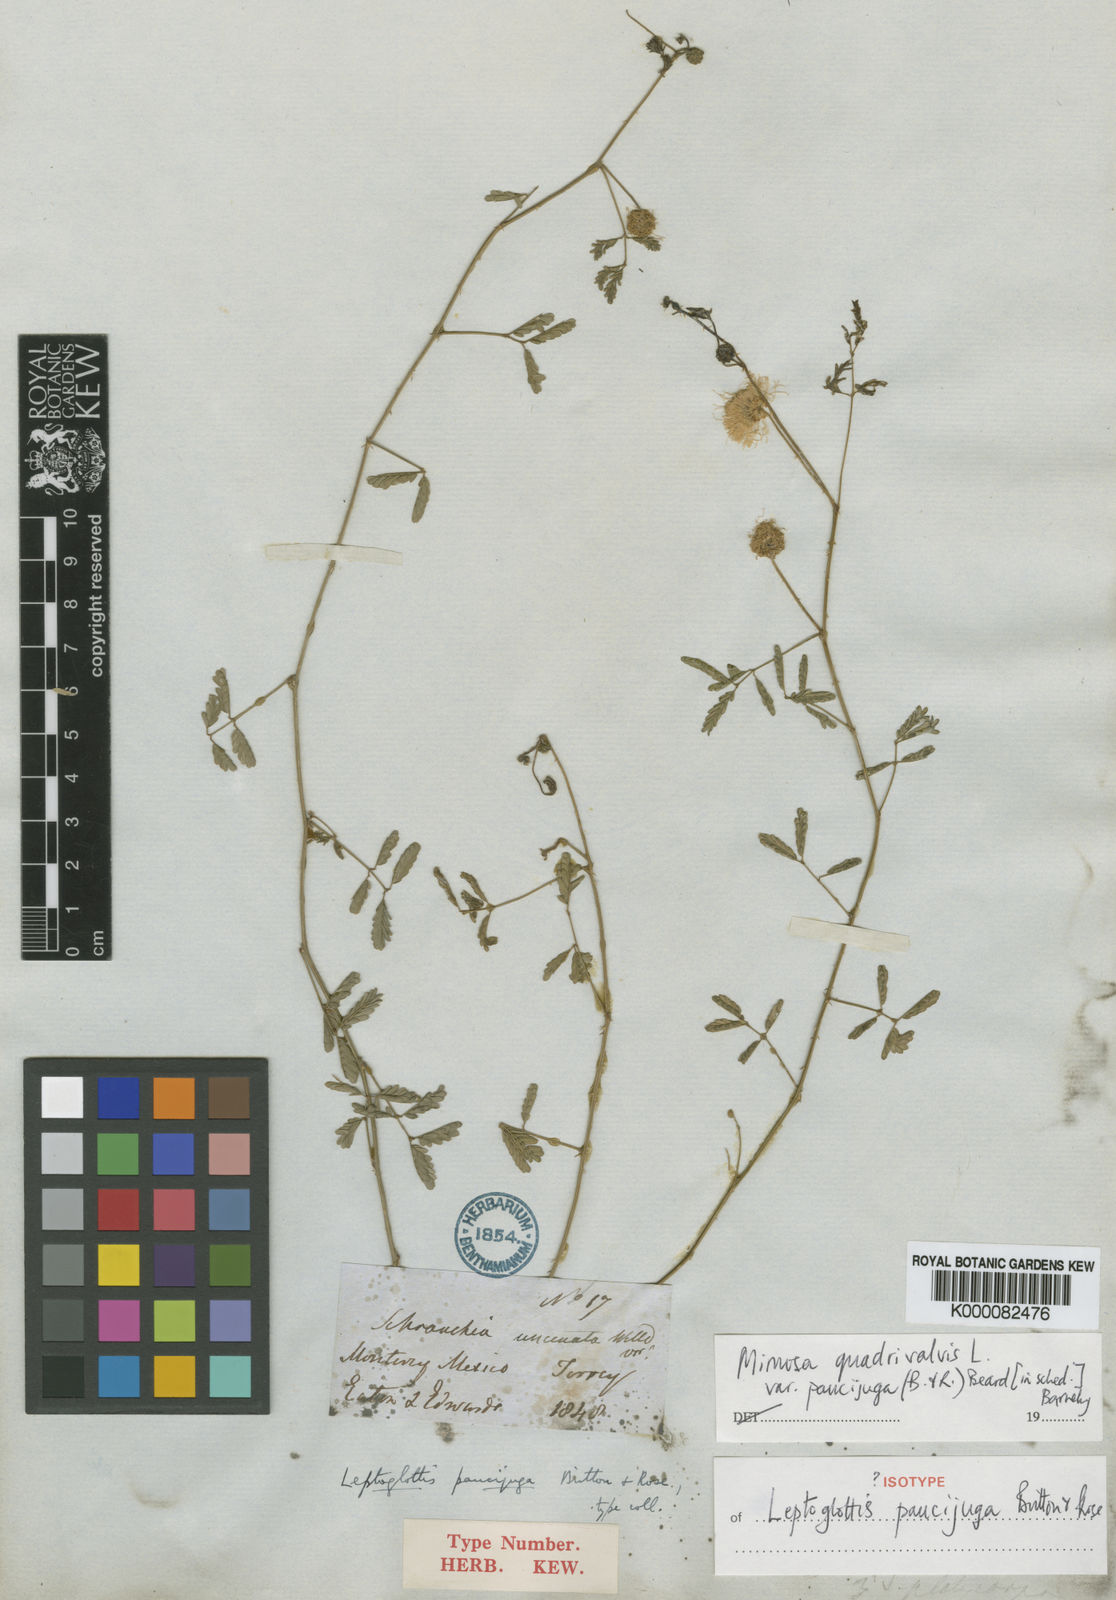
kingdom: Plantae
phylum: Tracheophyta
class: Magnoliopsida
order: Fabales
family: Fabaceae
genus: Mimosa
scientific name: Mimosa quadrivalvis
